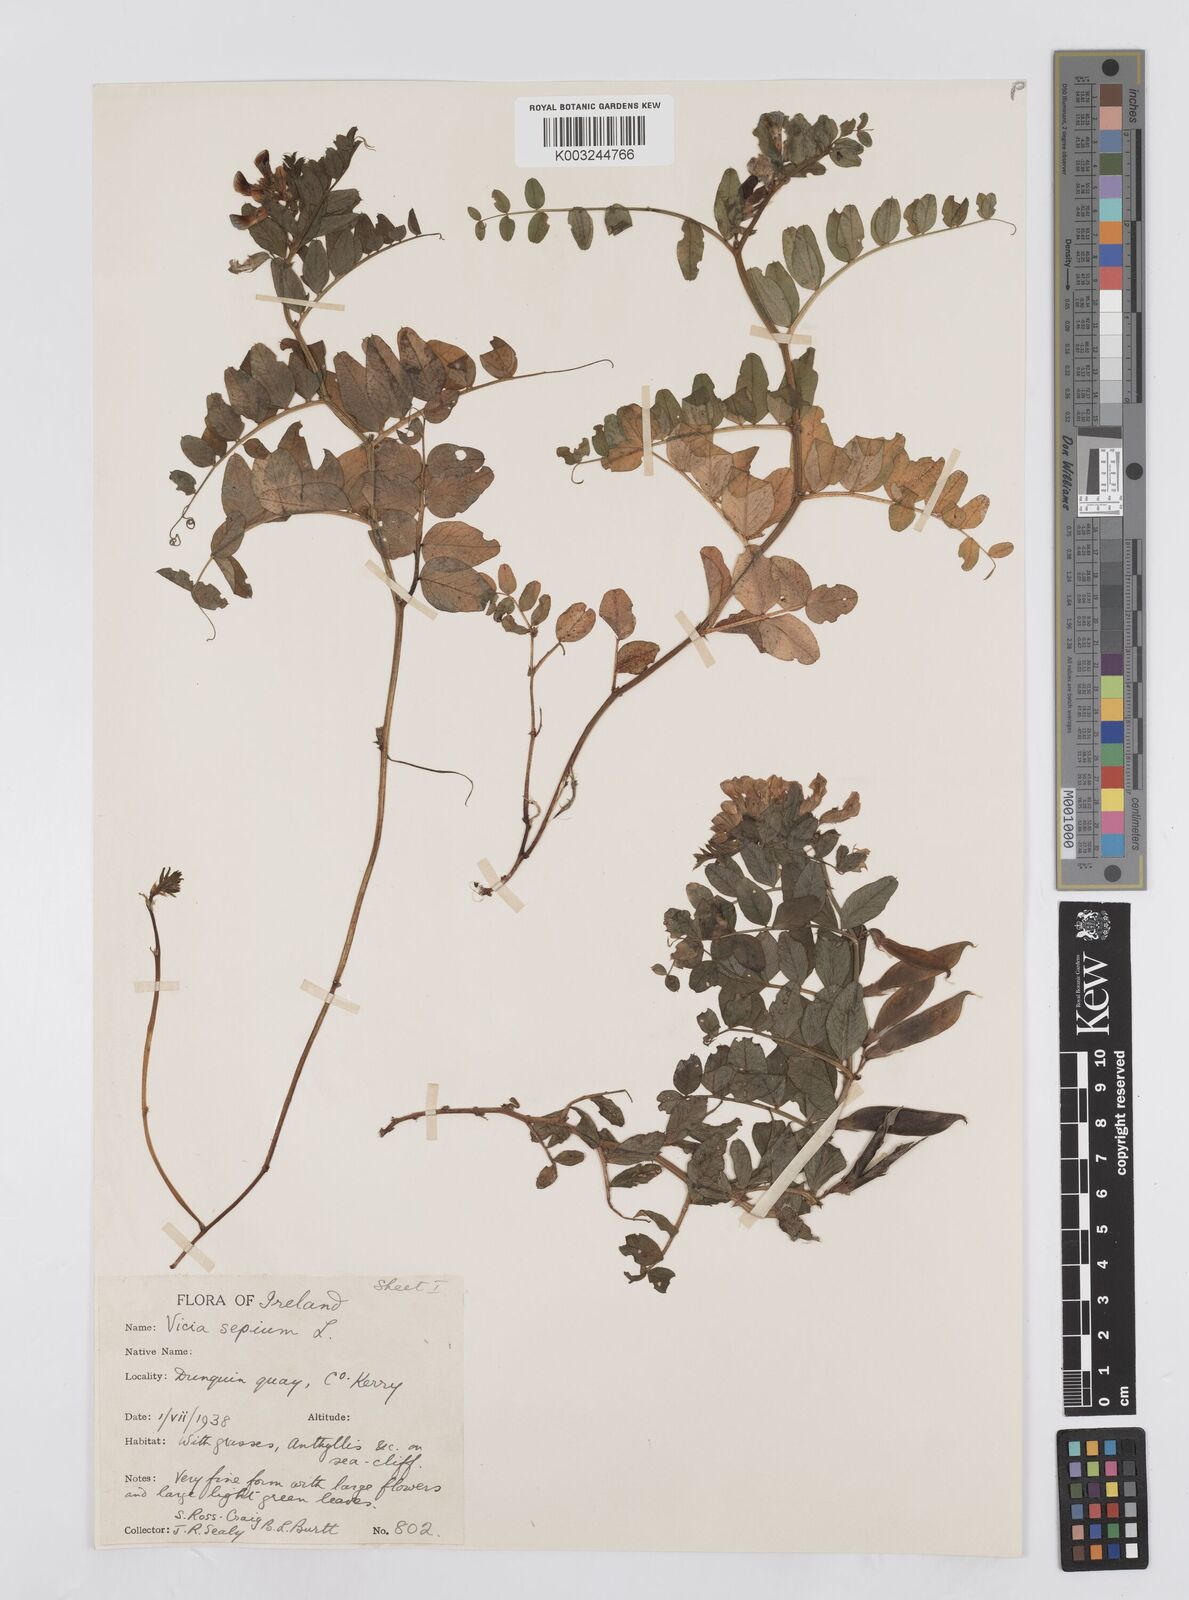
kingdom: Plantae
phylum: Tracheophyta
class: Magnoliopsida
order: Fabales
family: Fabaceae
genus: Vicia
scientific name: Vicia sepium
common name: Bush vetch
